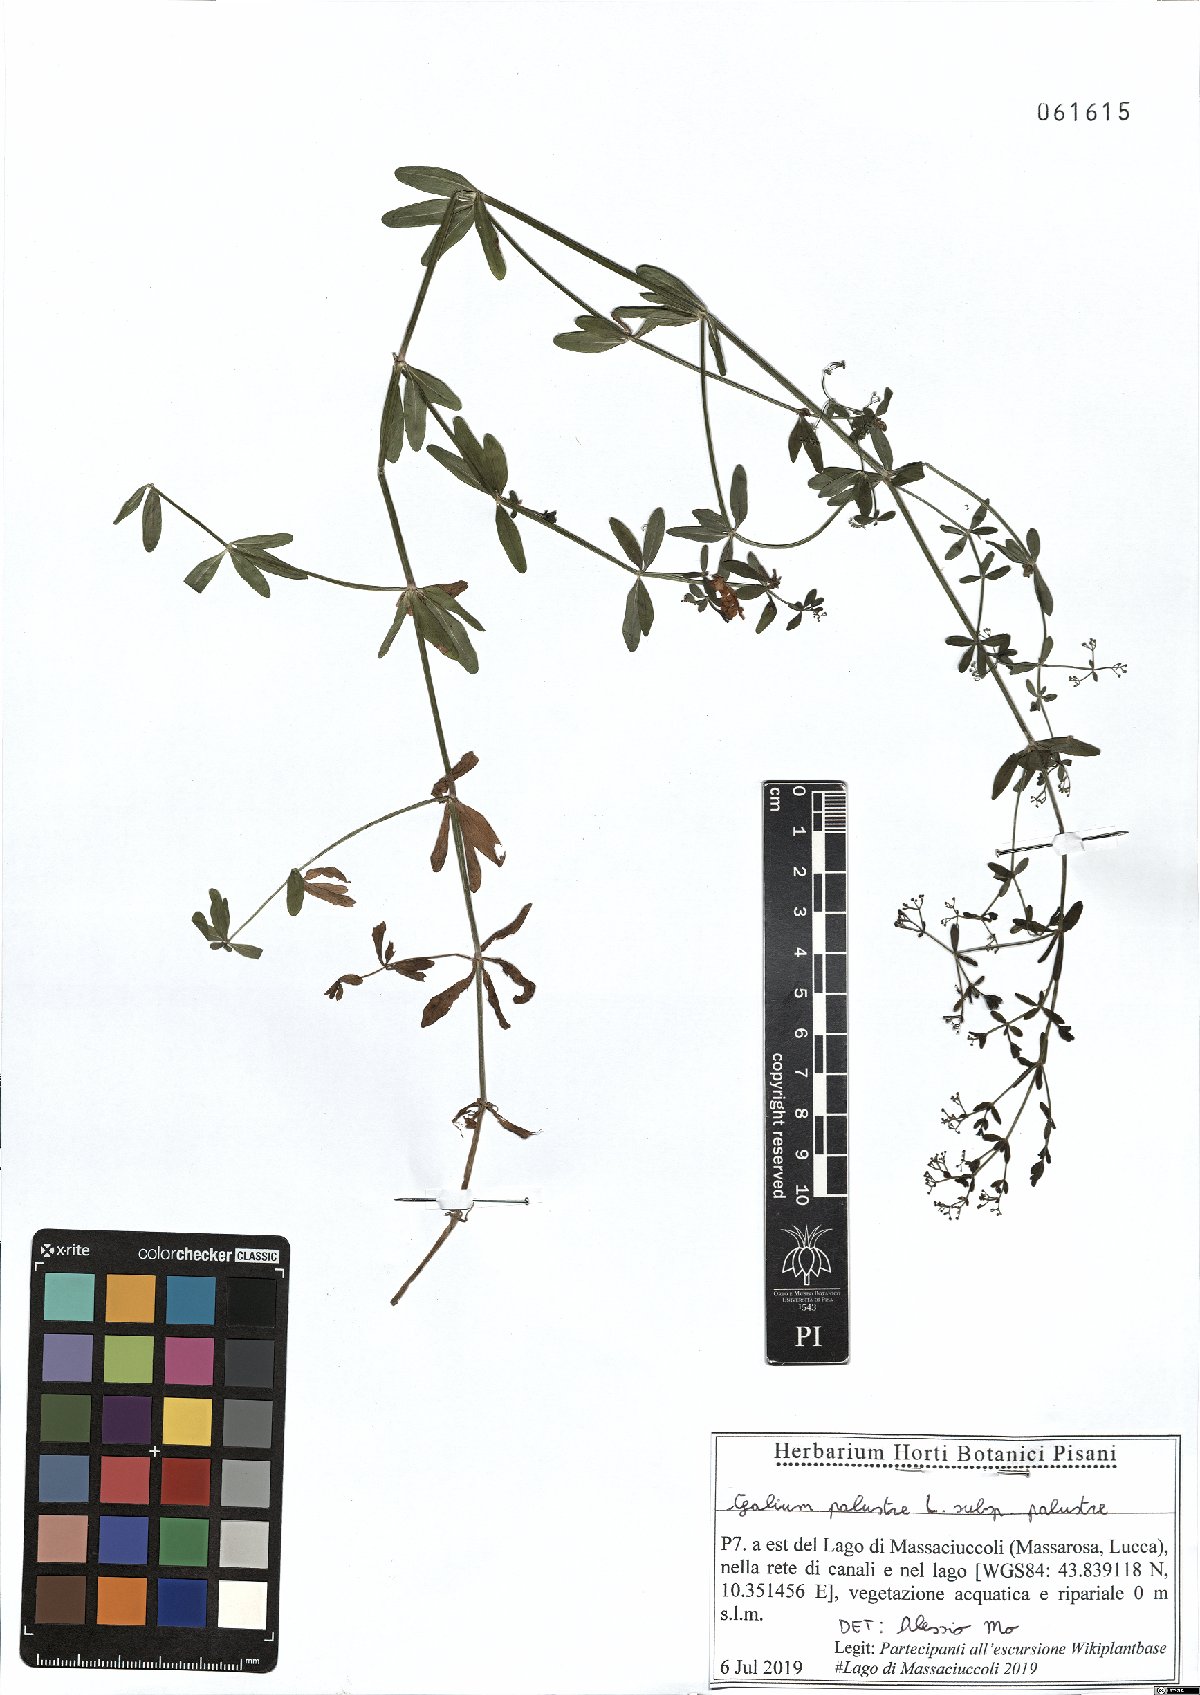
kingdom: Plantae
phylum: Tracheophyta
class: Magnoliopsida
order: Gentianales
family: Rubiaceae
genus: Galium
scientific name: Galium palustre
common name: Common marsh-bedstraw
